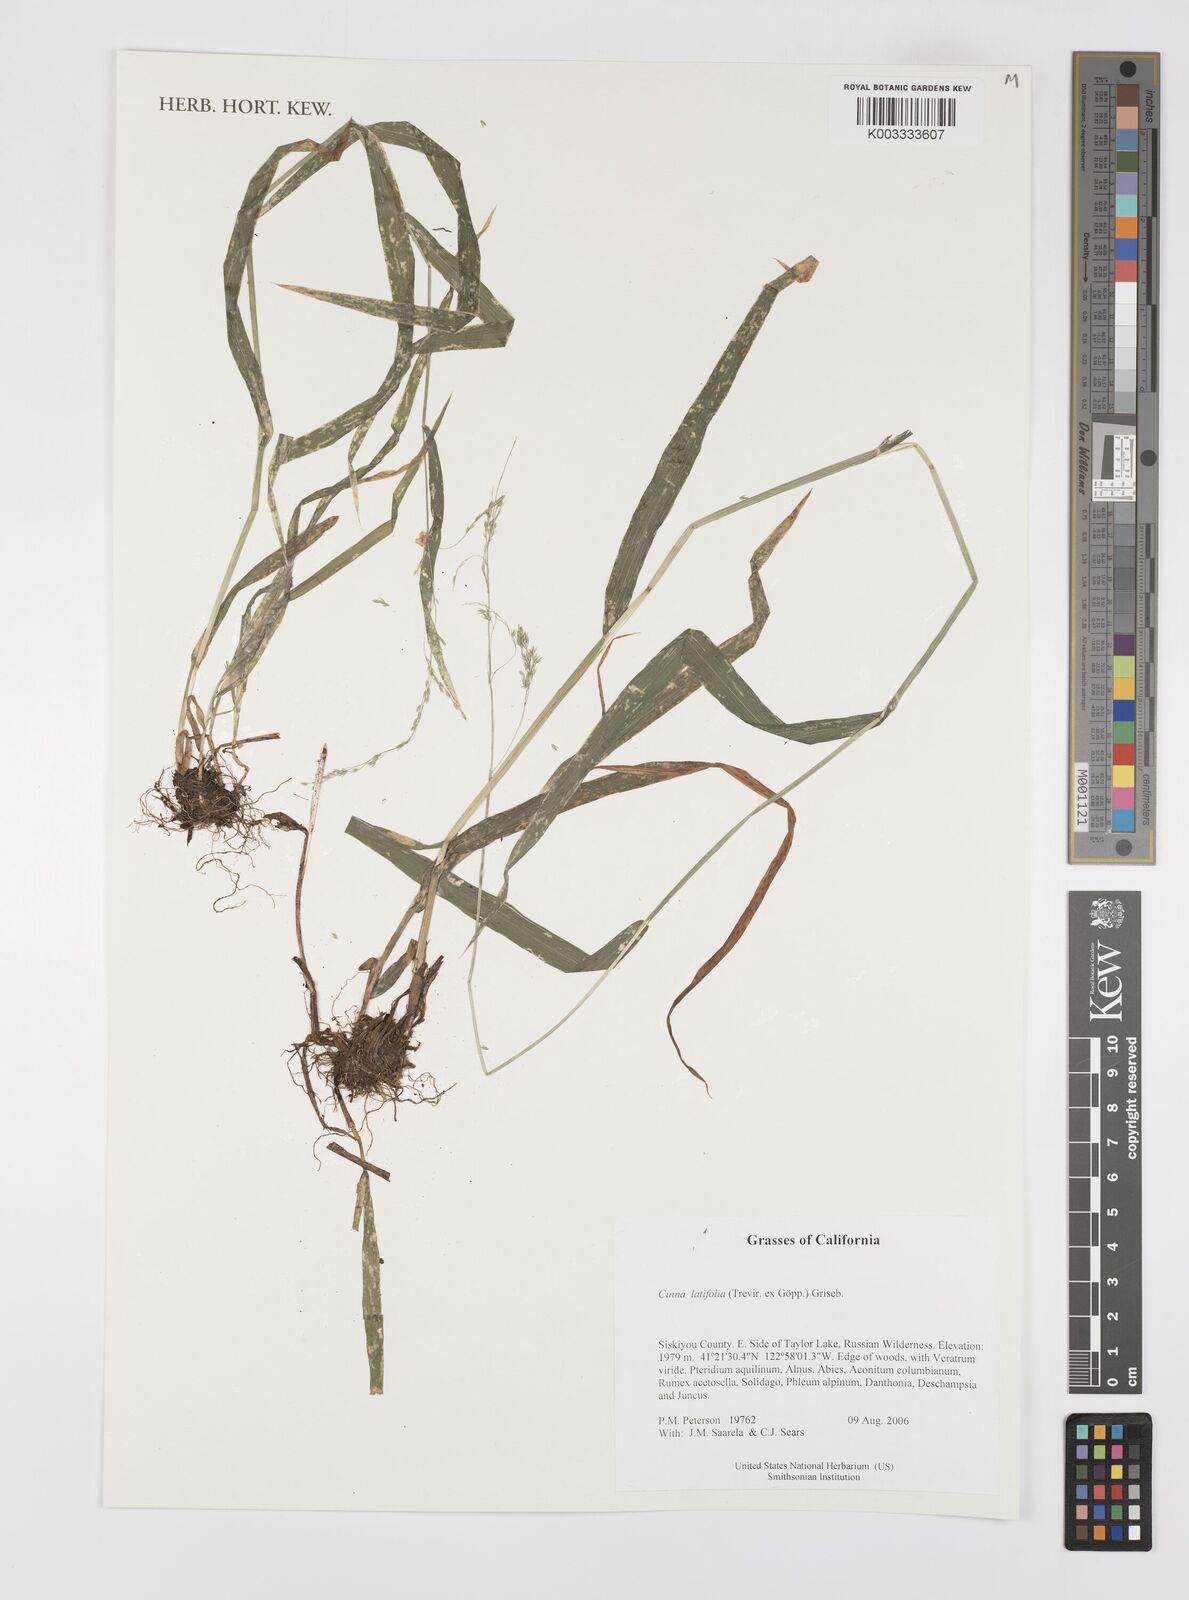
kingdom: Plantae
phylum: Tracheophyta
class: Liliopsida
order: Poales
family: Poaceae
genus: Cinna
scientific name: Cinna latifolia
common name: Drooping woodreed
